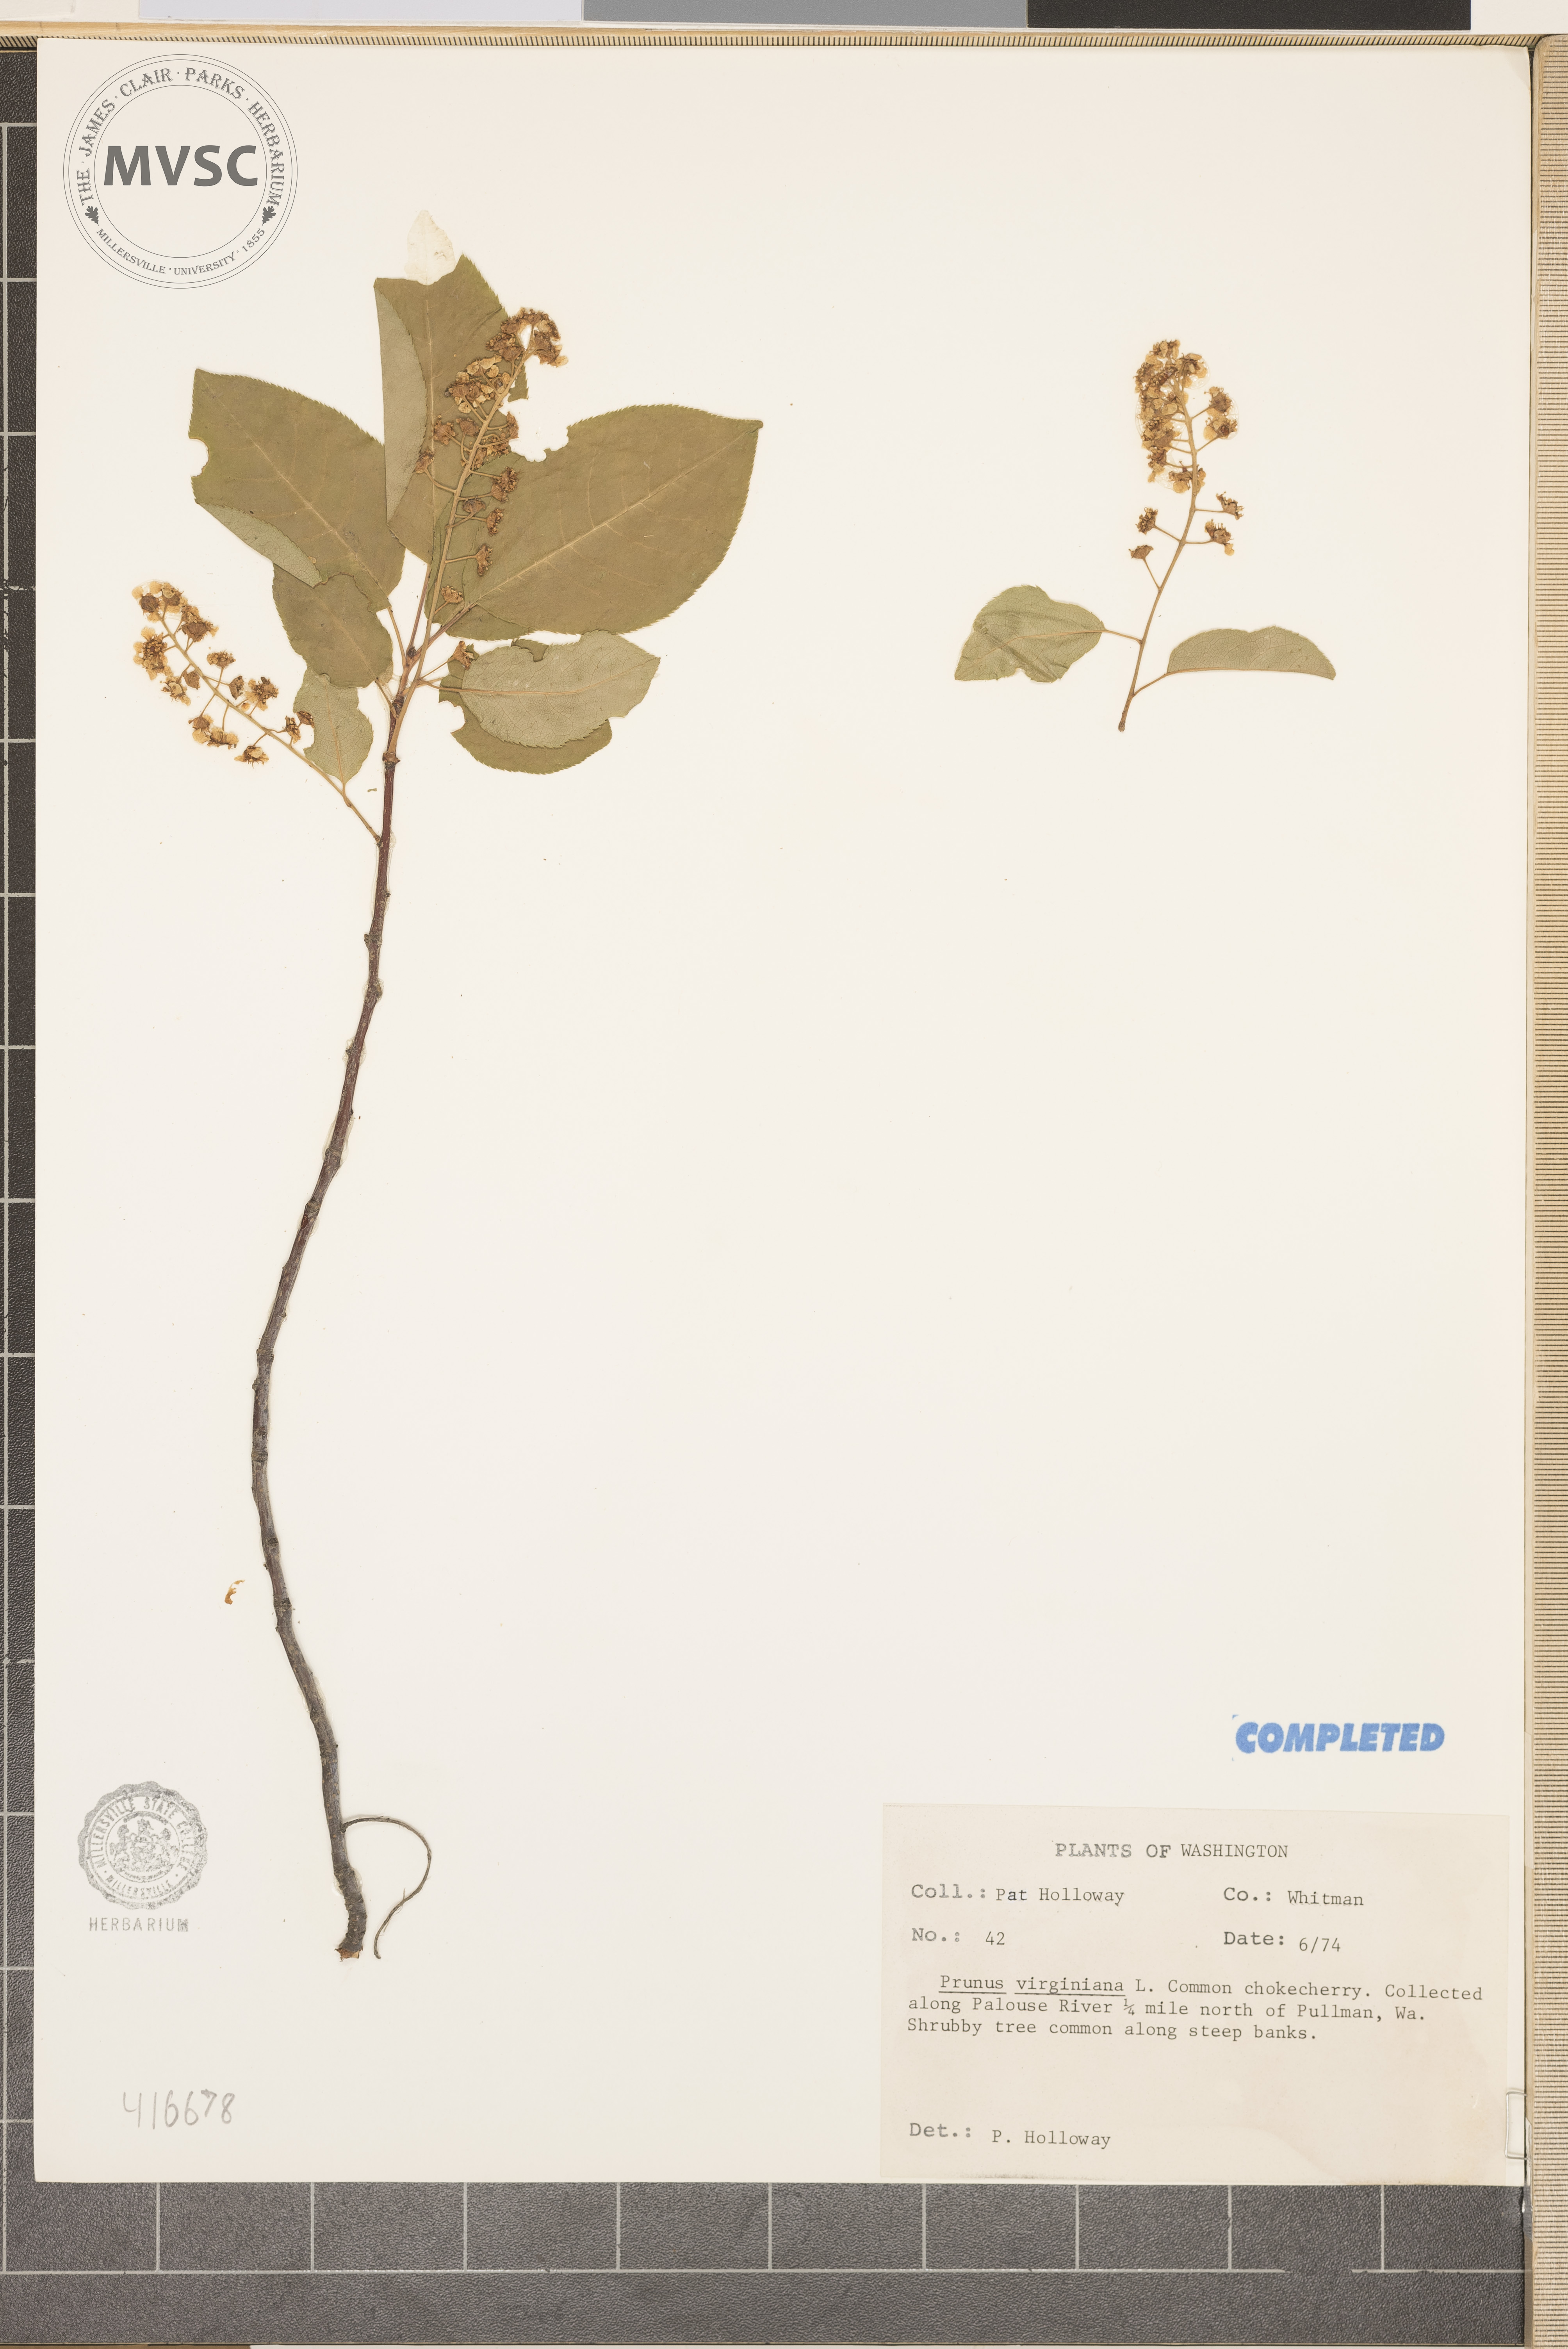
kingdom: Plantae
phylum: Tracheophyta
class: Magnoliopsida
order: Rosales
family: Rosaceae
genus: Prunus
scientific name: Prunus virginiana
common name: Chokecherry
